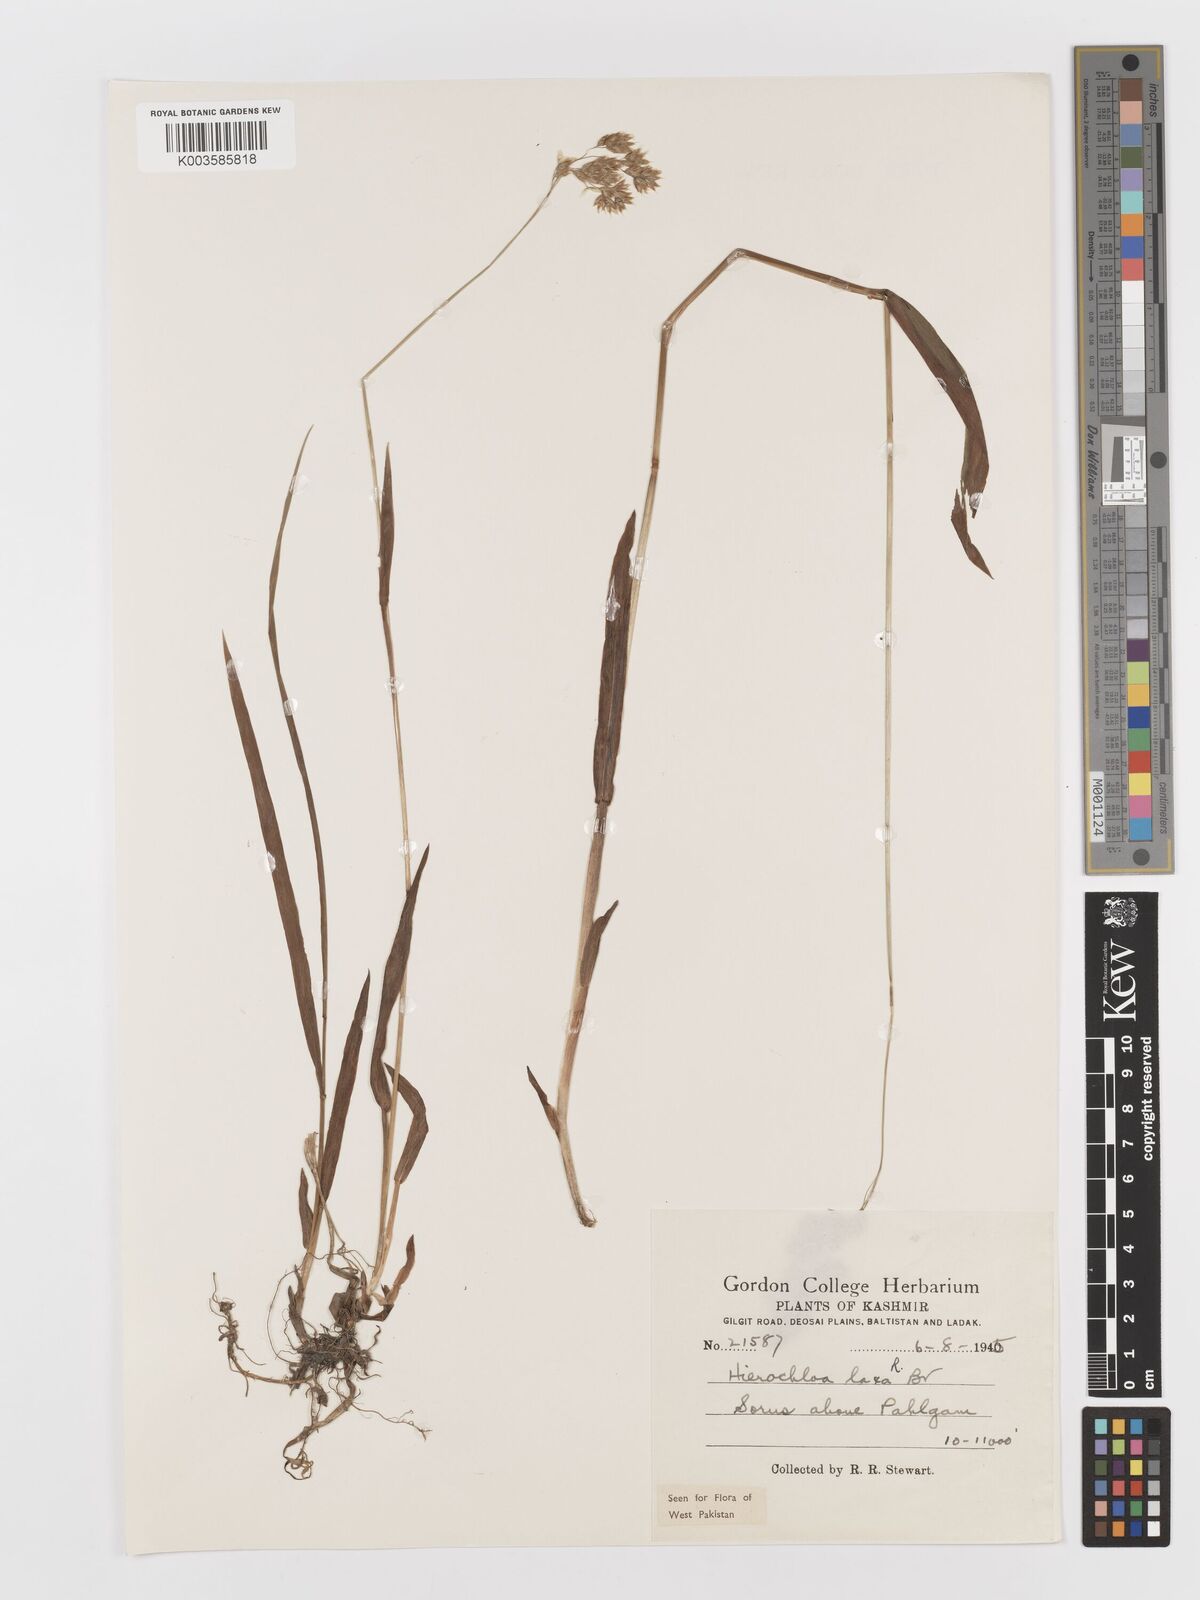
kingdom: Plantae
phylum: Tracheophyta
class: Liliopsida
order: Poales
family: Poaceae
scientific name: Poaceae
